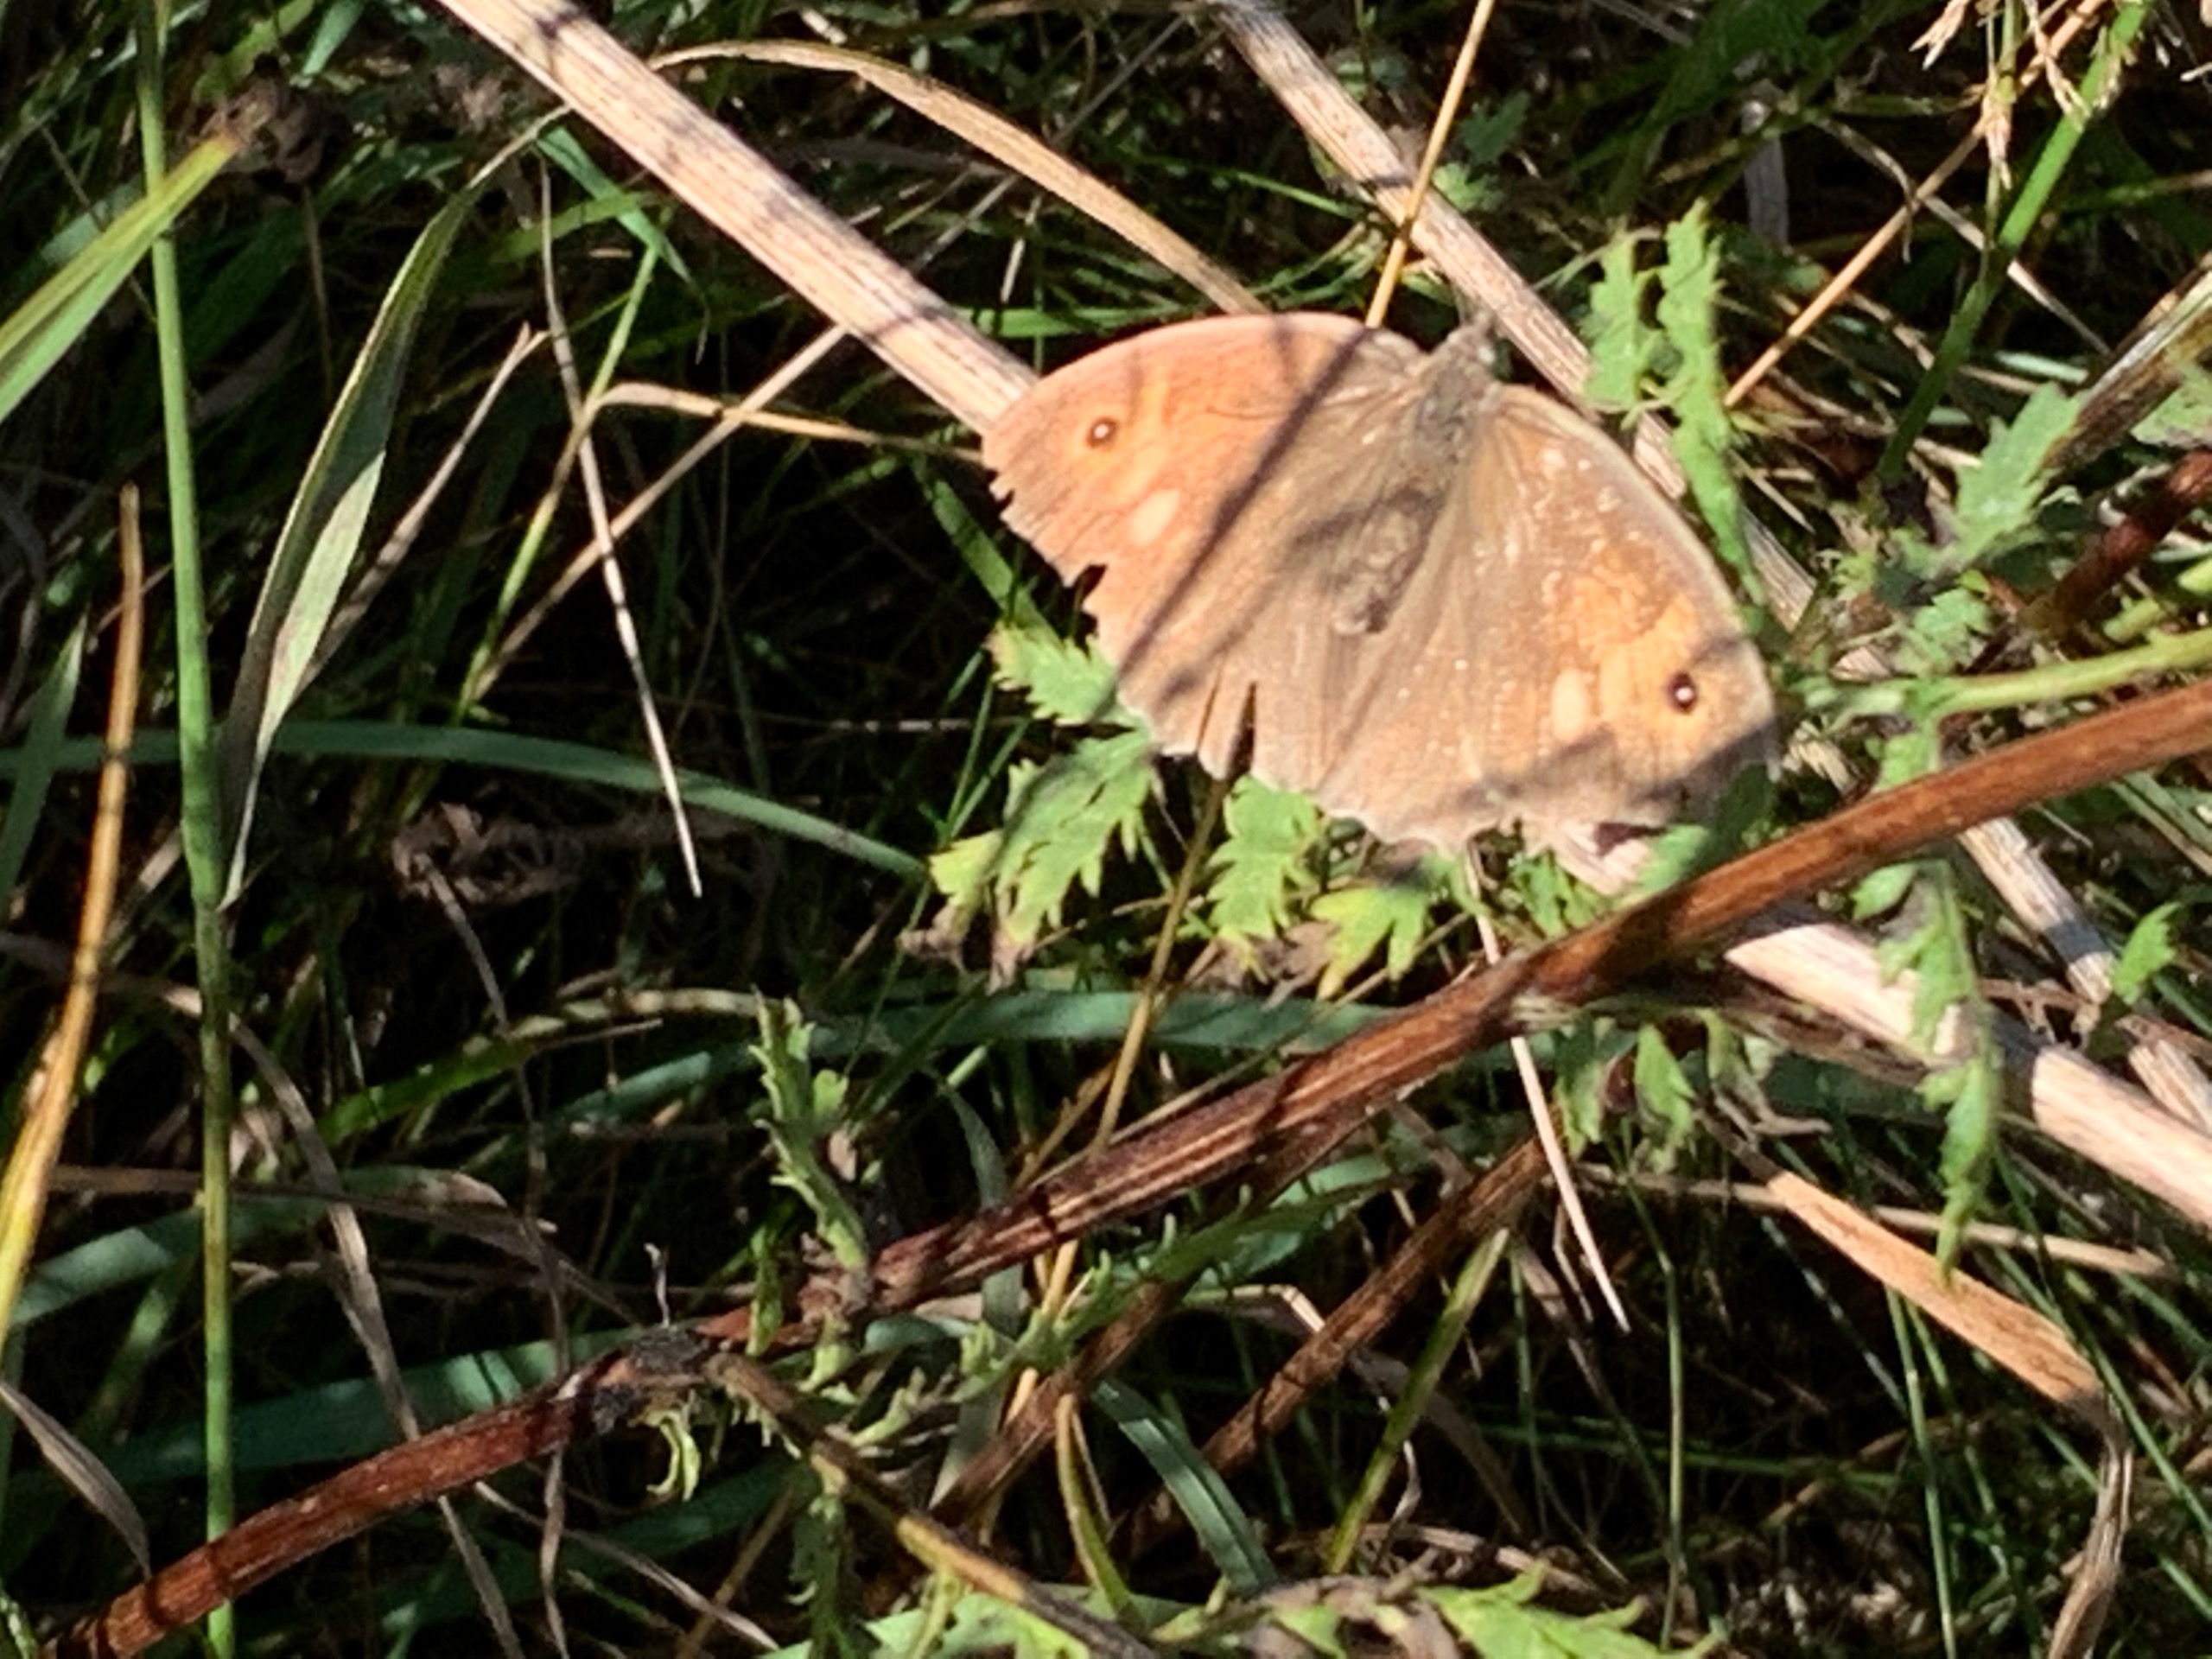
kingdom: Animalia
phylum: Arthropoda
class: Insecta
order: Lepidoptera
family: Nymphalidae
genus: Maniola
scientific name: Maniola jurtina
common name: Græsrandøje
